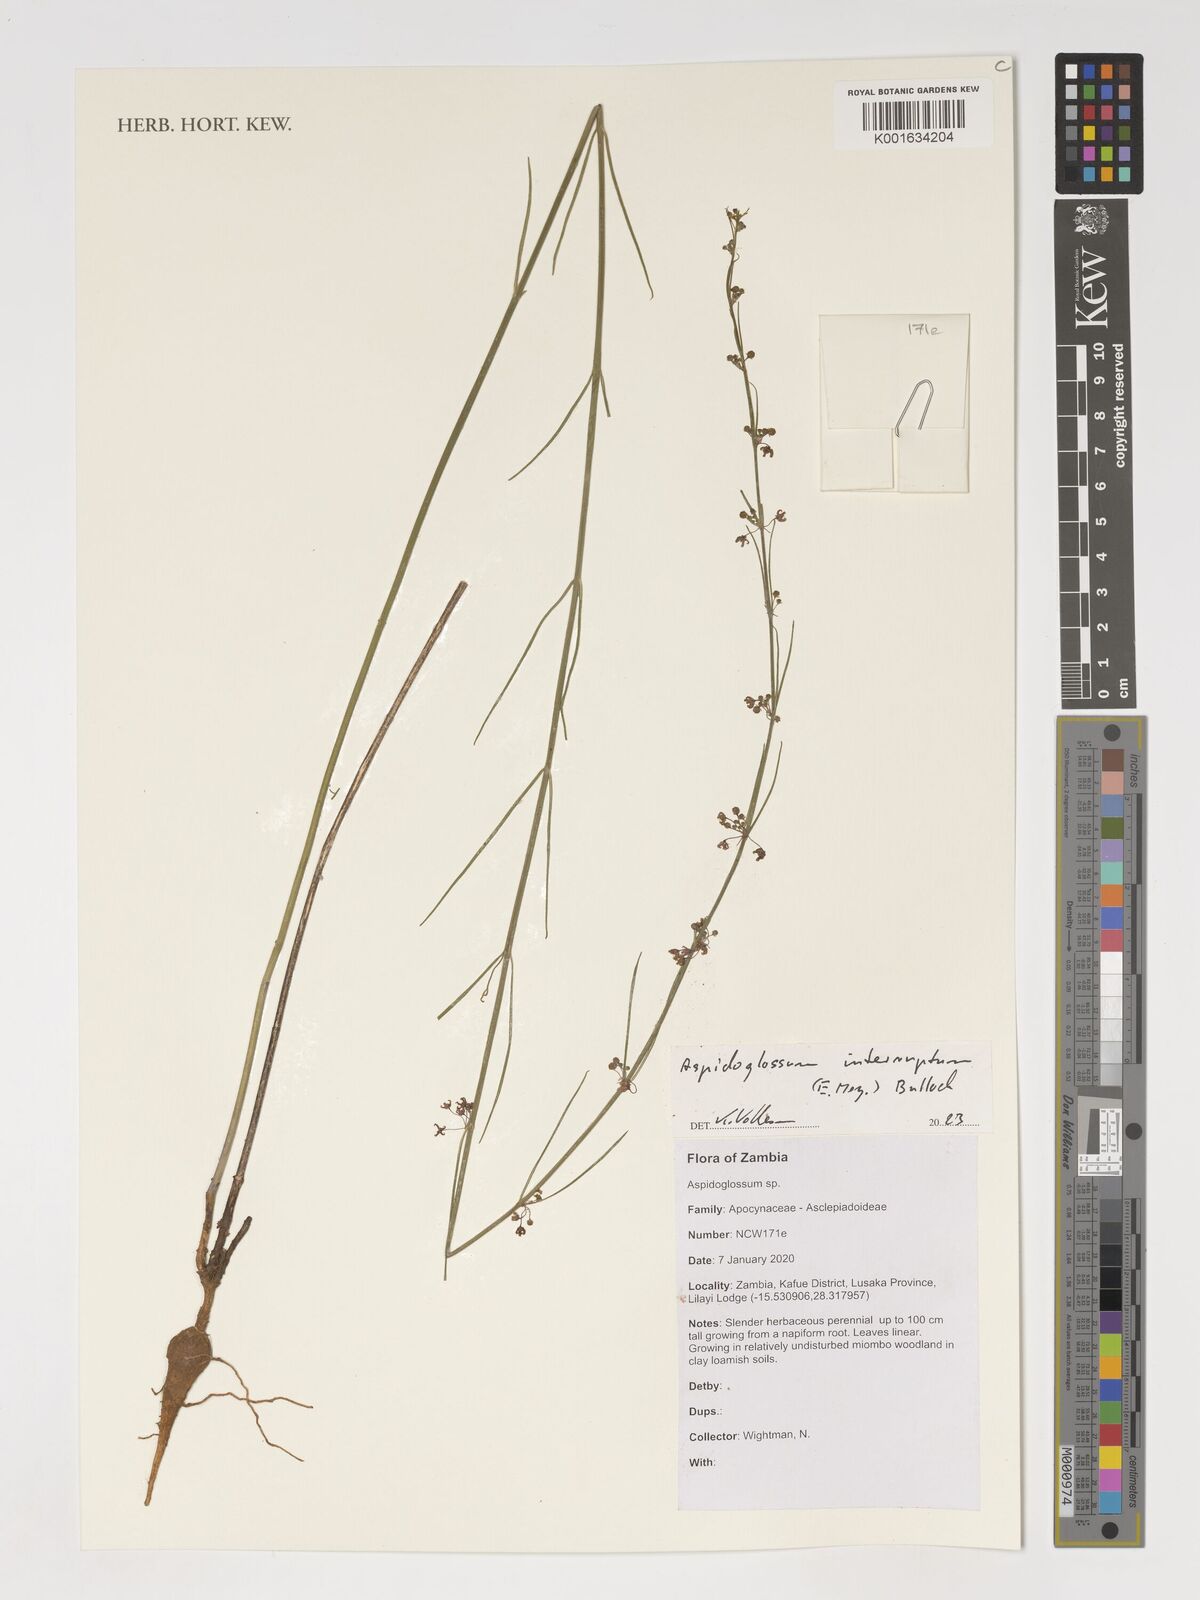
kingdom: Plantae
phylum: Tracheophyta
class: Magnoliopsida
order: Gentianales
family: Apocynaceae
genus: Aspidoglossum
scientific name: Aspidoglossum interruptum
